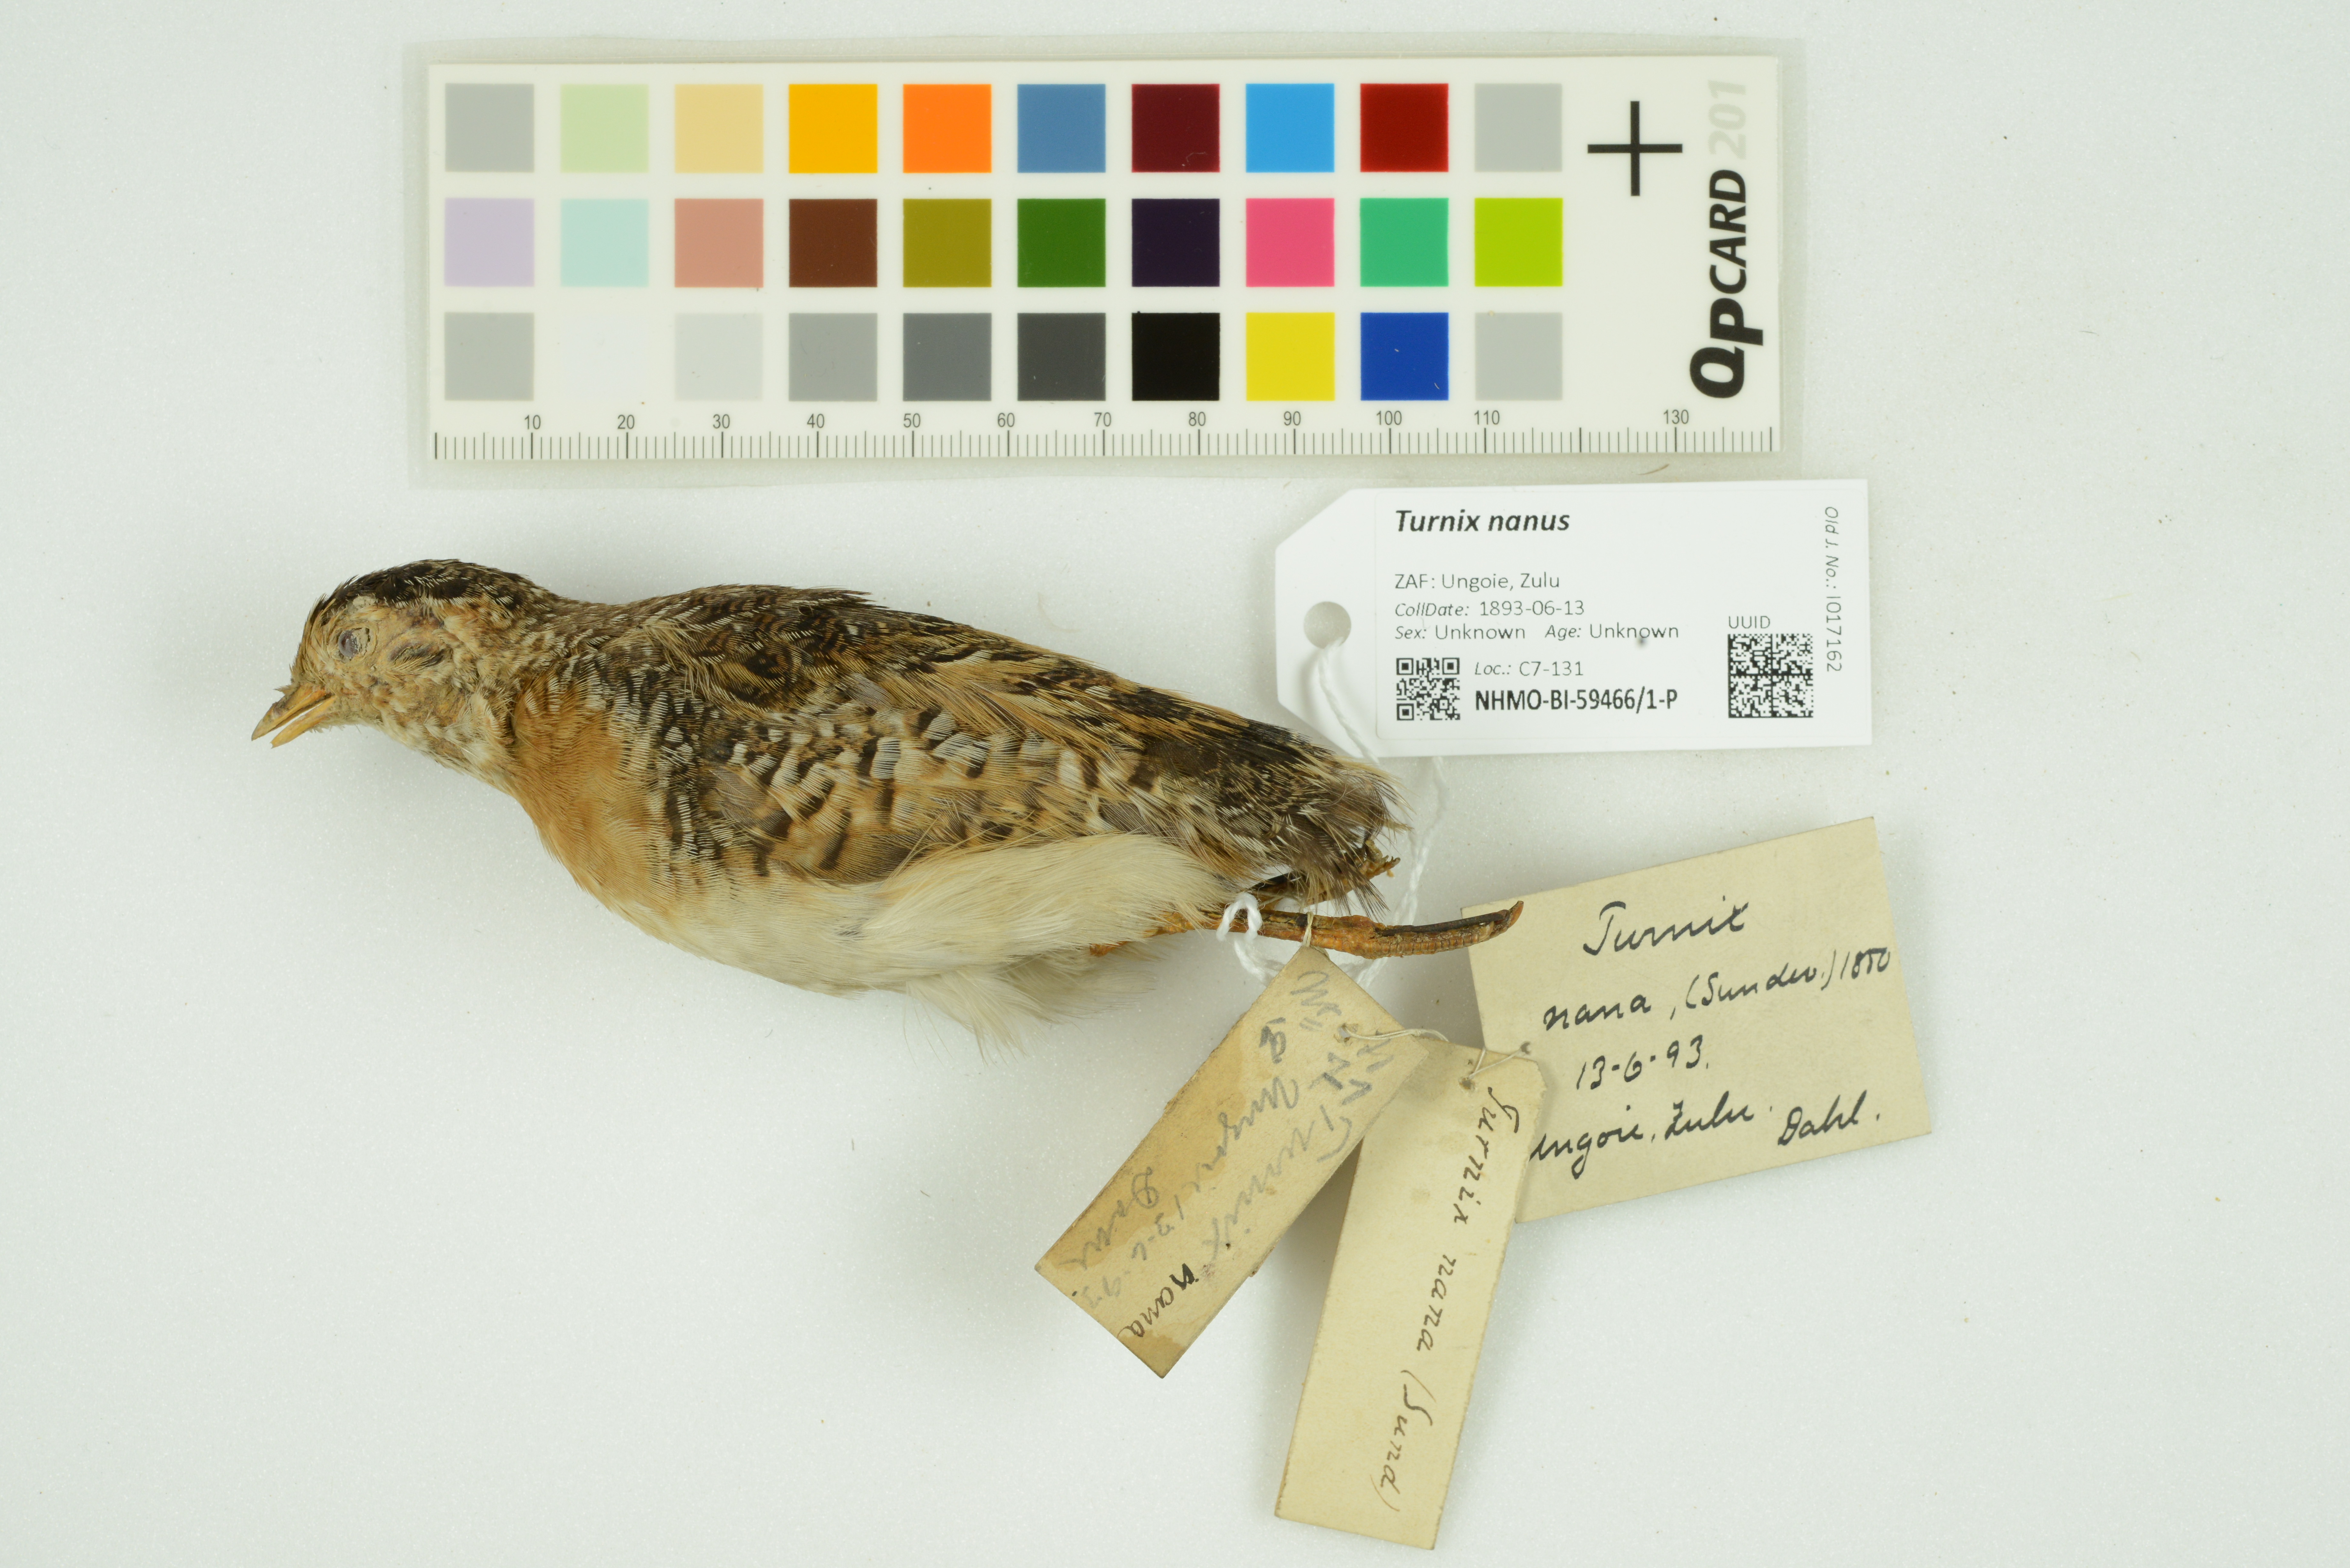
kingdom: Animalia
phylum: Chordata
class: Aves
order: Charadriiformes
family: Turnicidae
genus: Turnix
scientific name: Turnix nanus
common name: Black-rumped buttonquail
